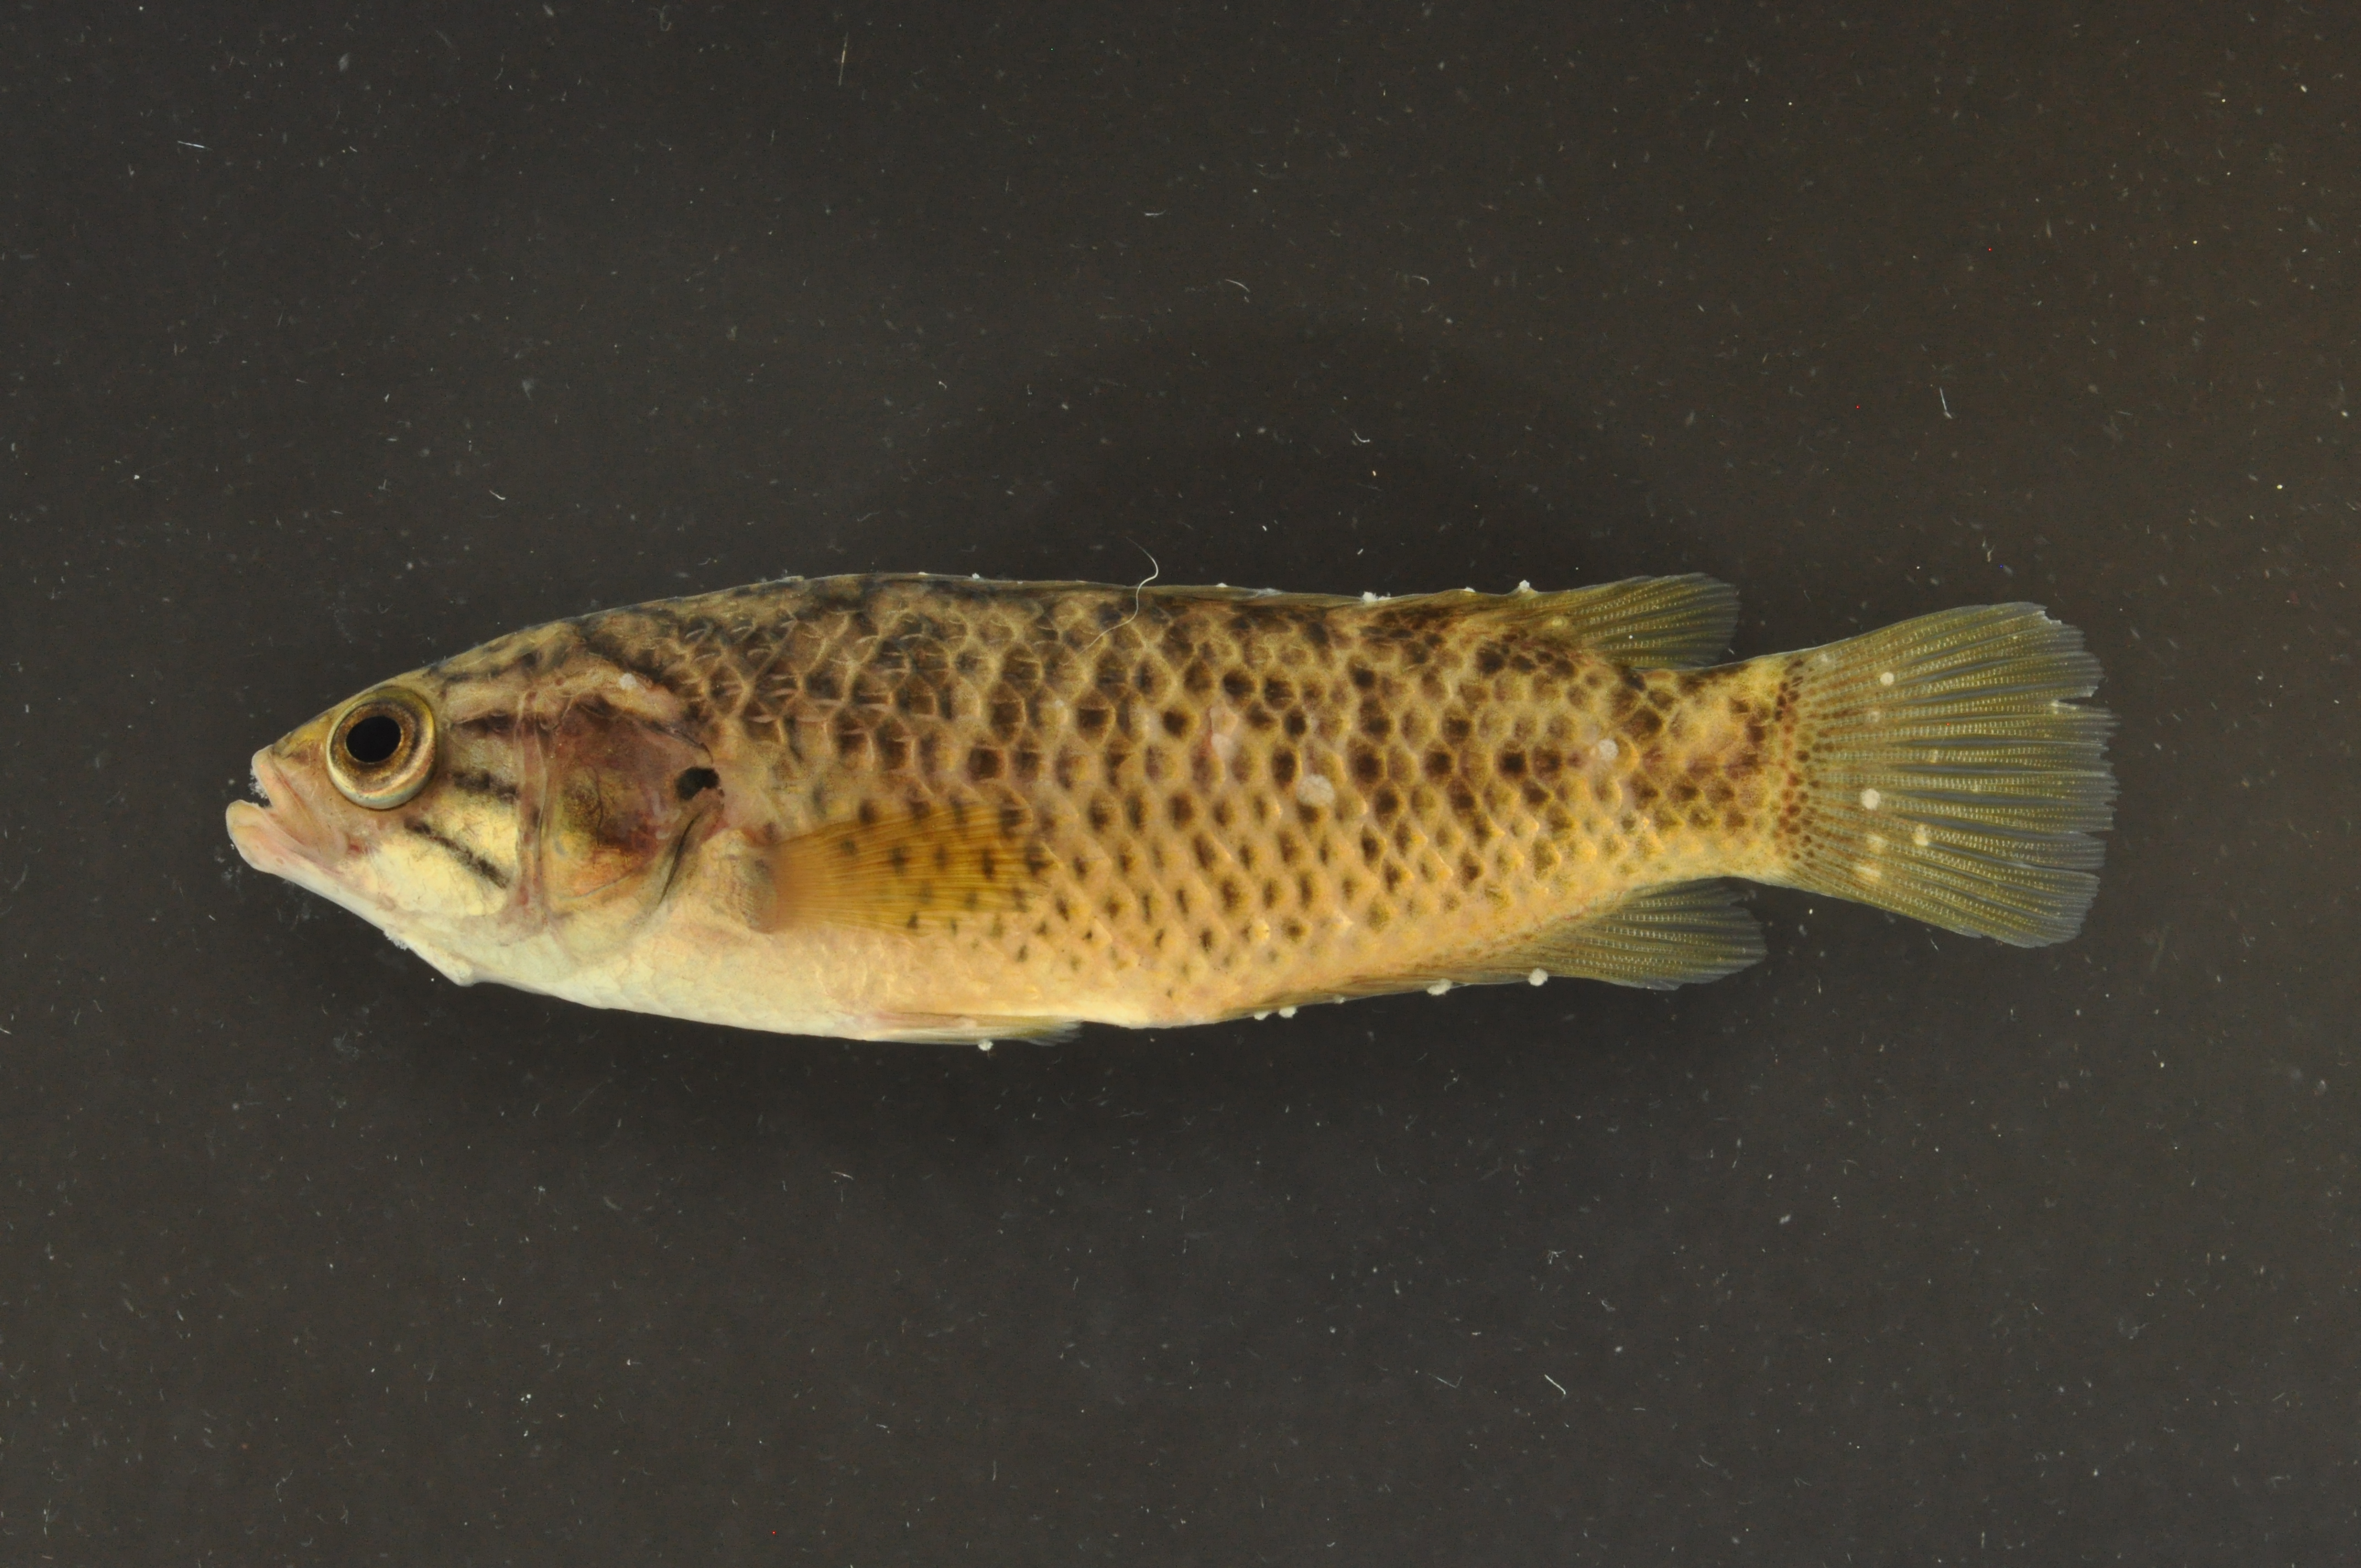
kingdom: Animalia
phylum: Chordata
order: Perciformes
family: Anabantidae
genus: Sandelia
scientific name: Sandelia capensis
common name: Cape kurper
